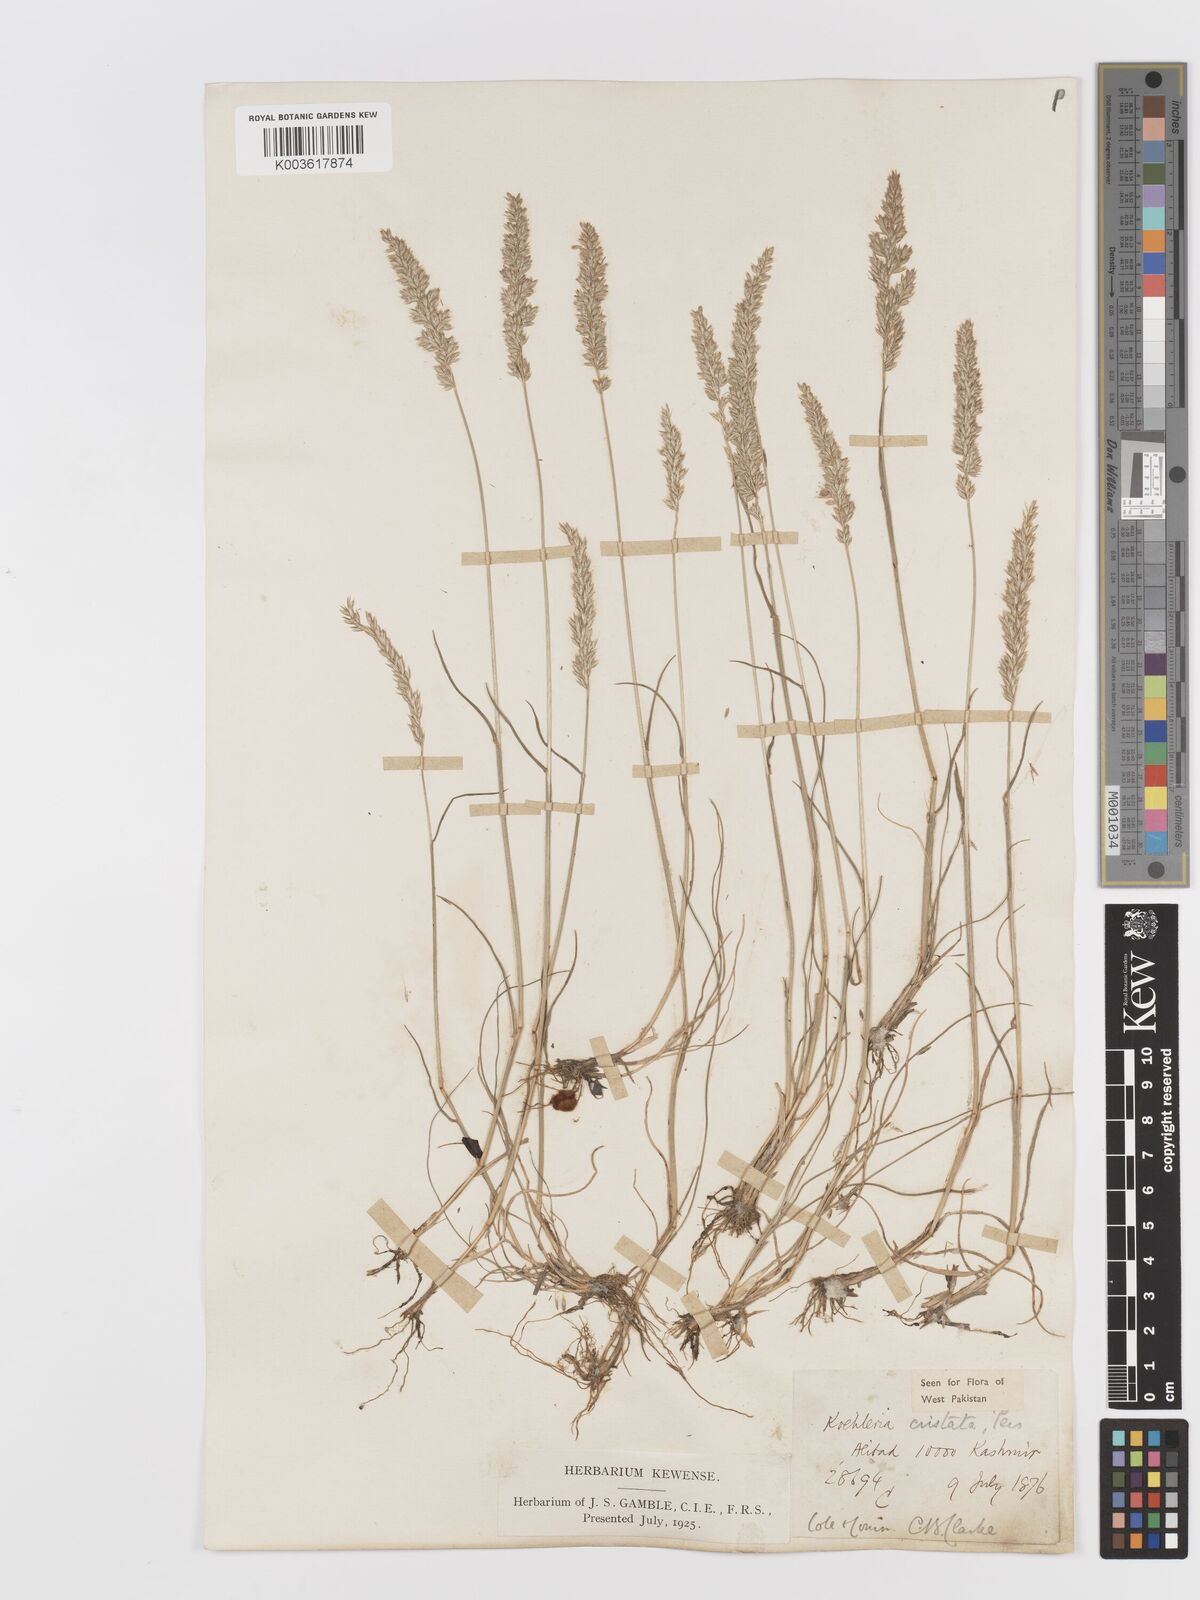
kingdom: Plantae
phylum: Tracheophyta
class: Liliopsida
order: Poales
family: Poaceae
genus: Koeleria
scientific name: Koeleria
